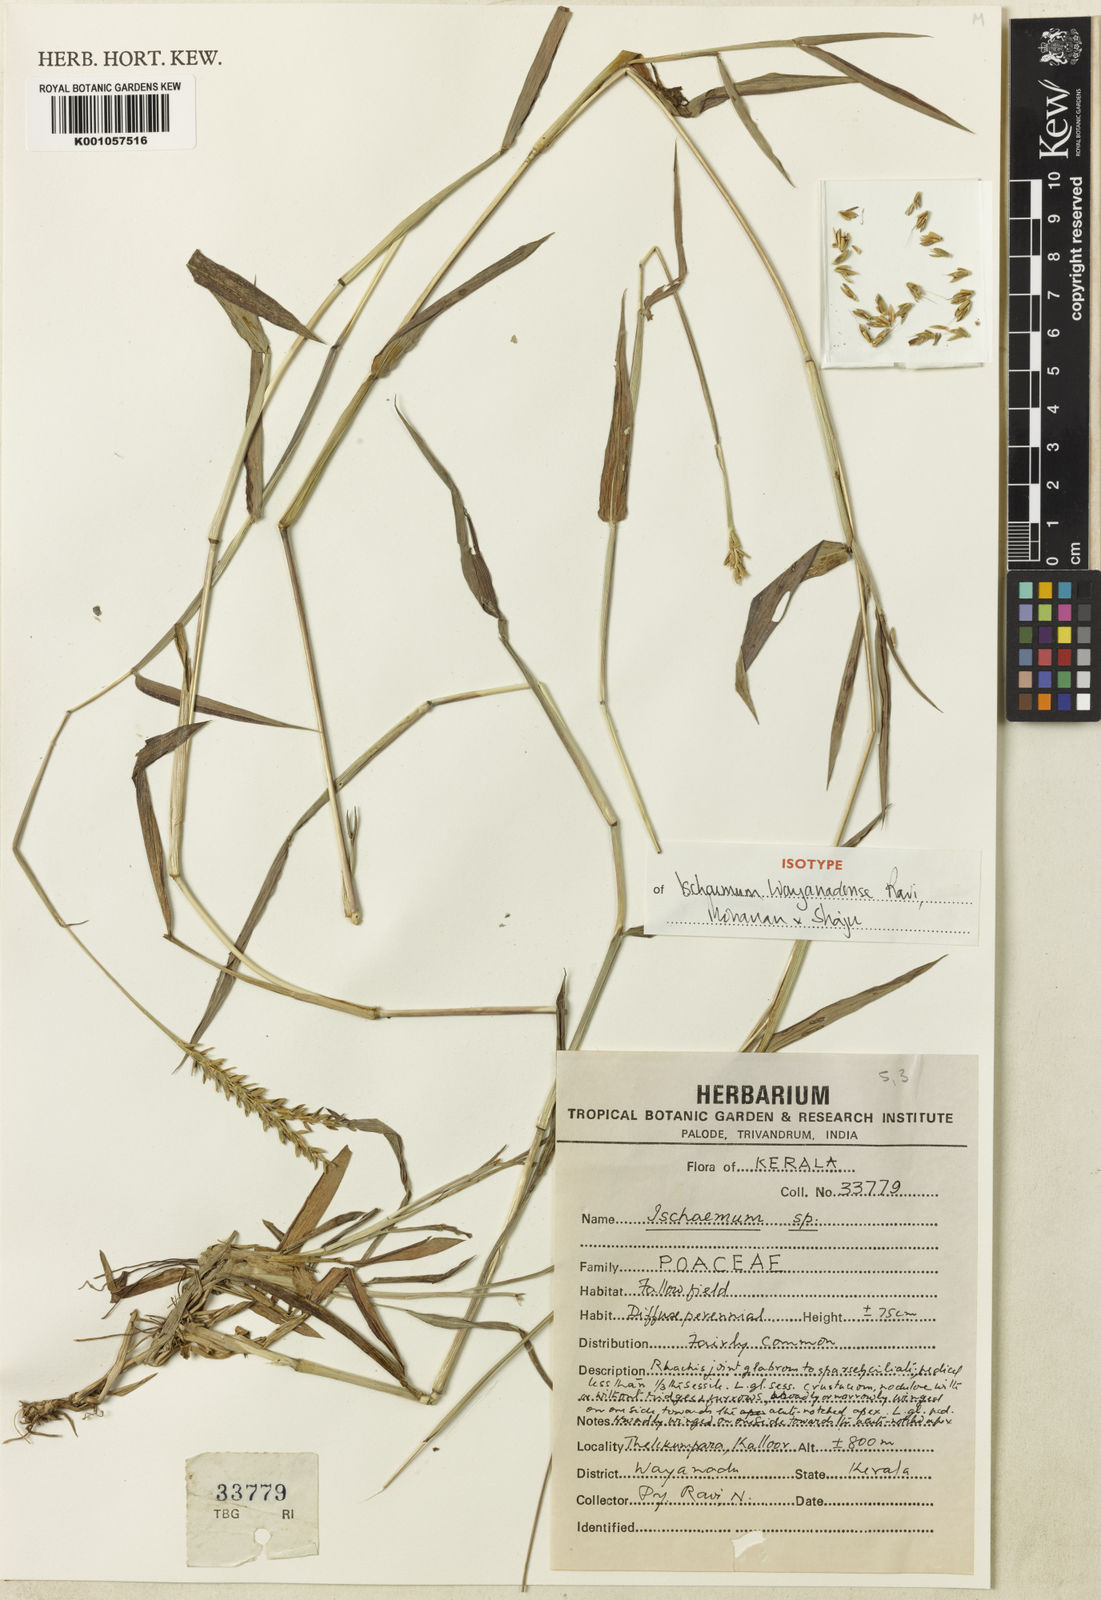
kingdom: Plantae
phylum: Tracheophyta
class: Liliopsida
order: Poales
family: Poaceae
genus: Ischaemum
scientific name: Ischaemum
